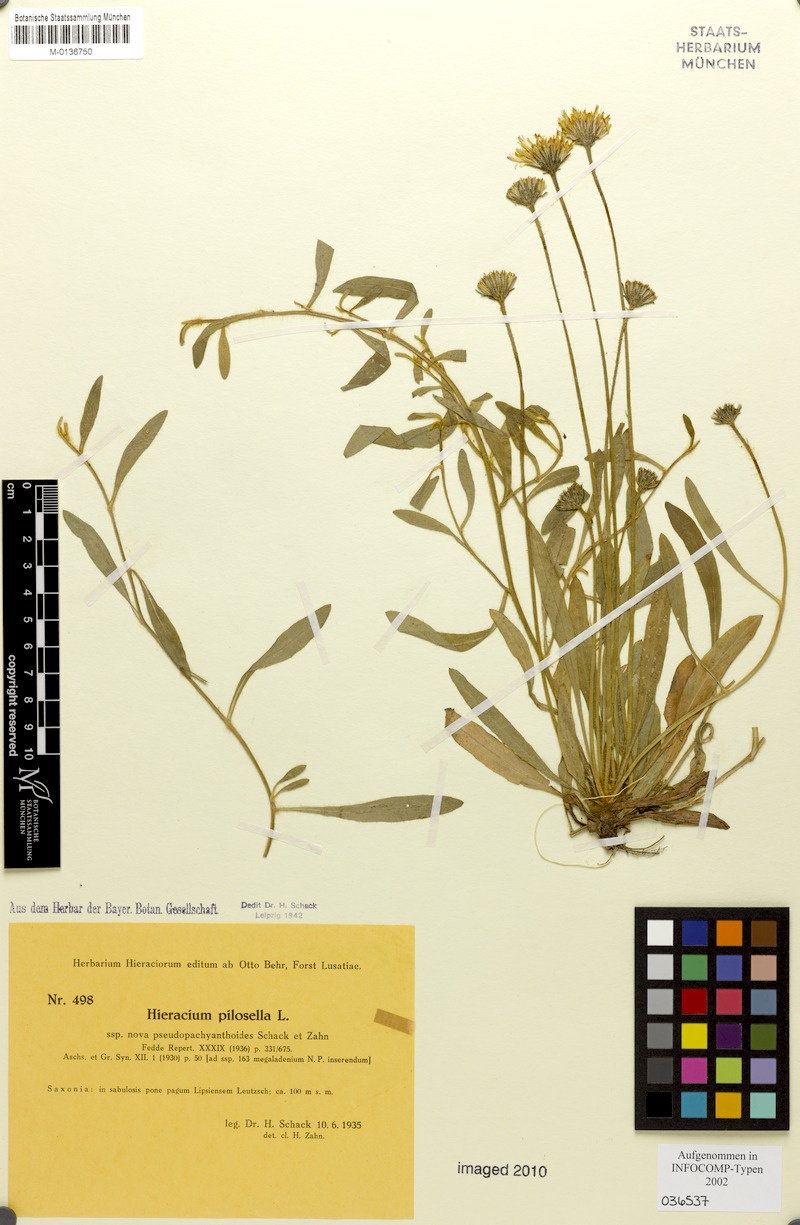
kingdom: Plantae
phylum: Tracheophyta
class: Magnoliopsida
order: Asterales
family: Asteraceae
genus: Pilosella
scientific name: Pilosella officinarum
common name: Mouse-ear hawkweed
